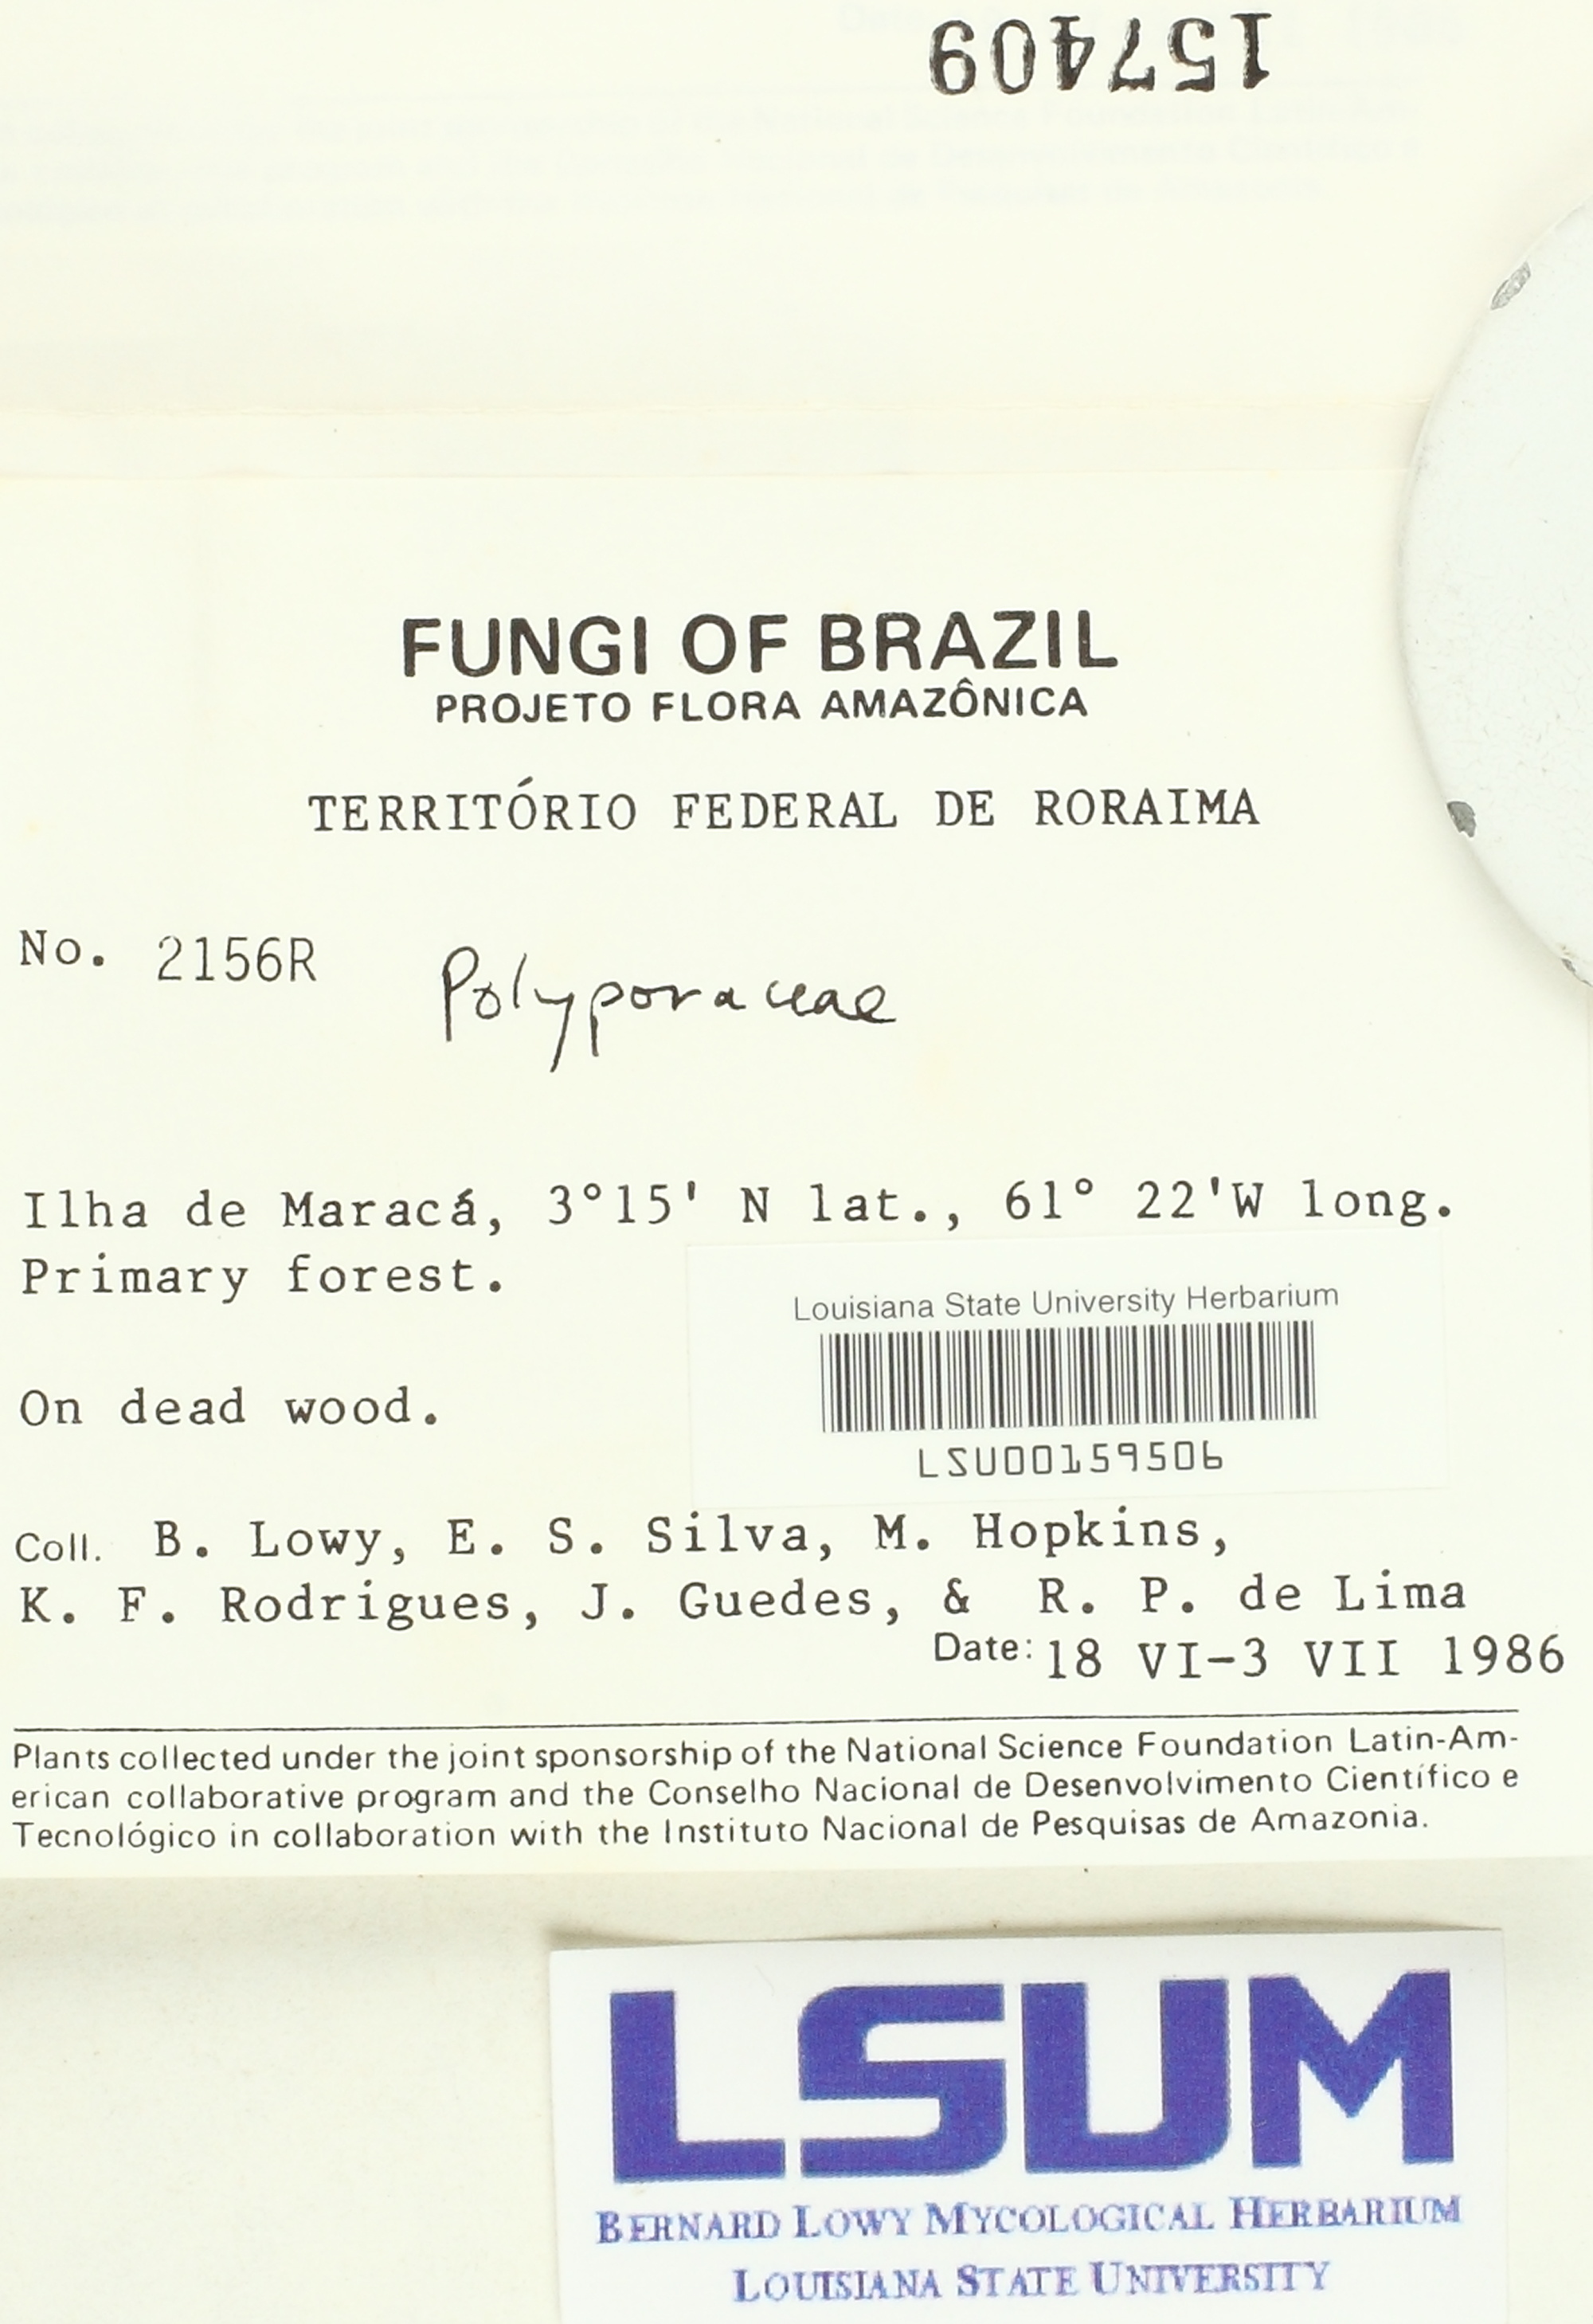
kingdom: Fungi
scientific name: Fungi
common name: Fungi
